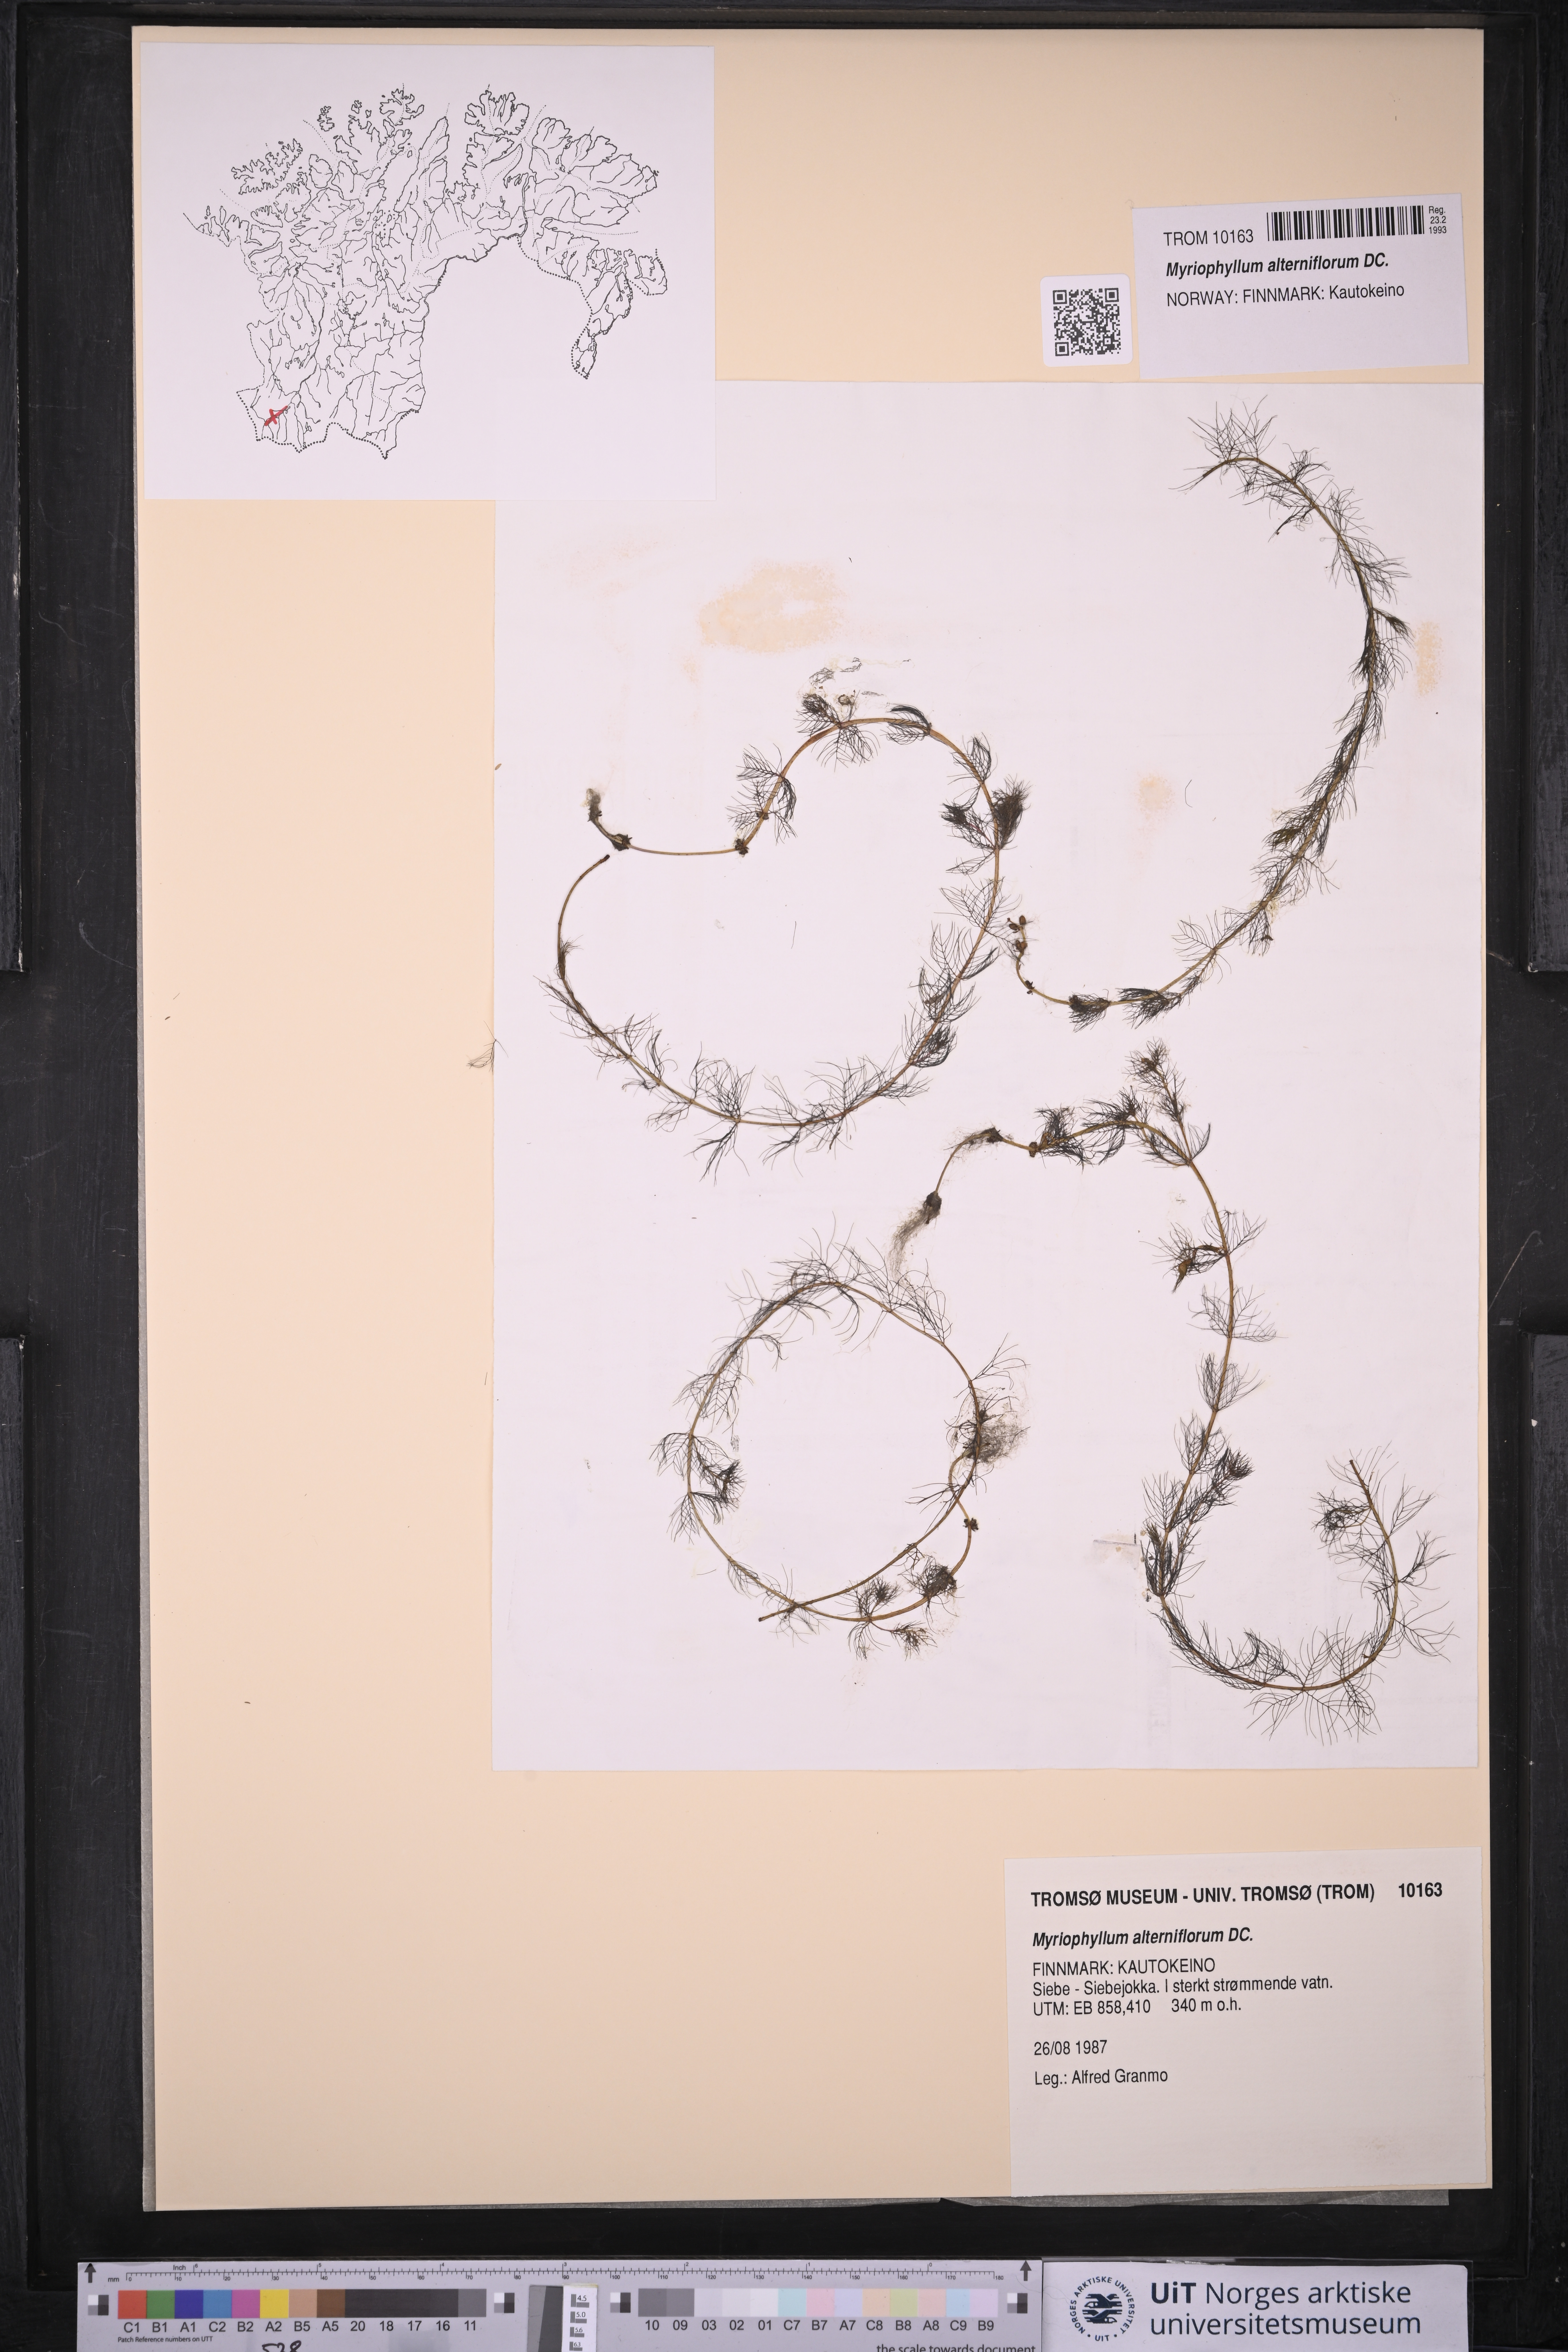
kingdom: Plantae
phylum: Tracheophyta
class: Magnoliopsida
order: Saxifragales
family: Haloragaceae
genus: Myriophyllum
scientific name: Myriophyllum alterniflorum
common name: Alternate water-milfoil
